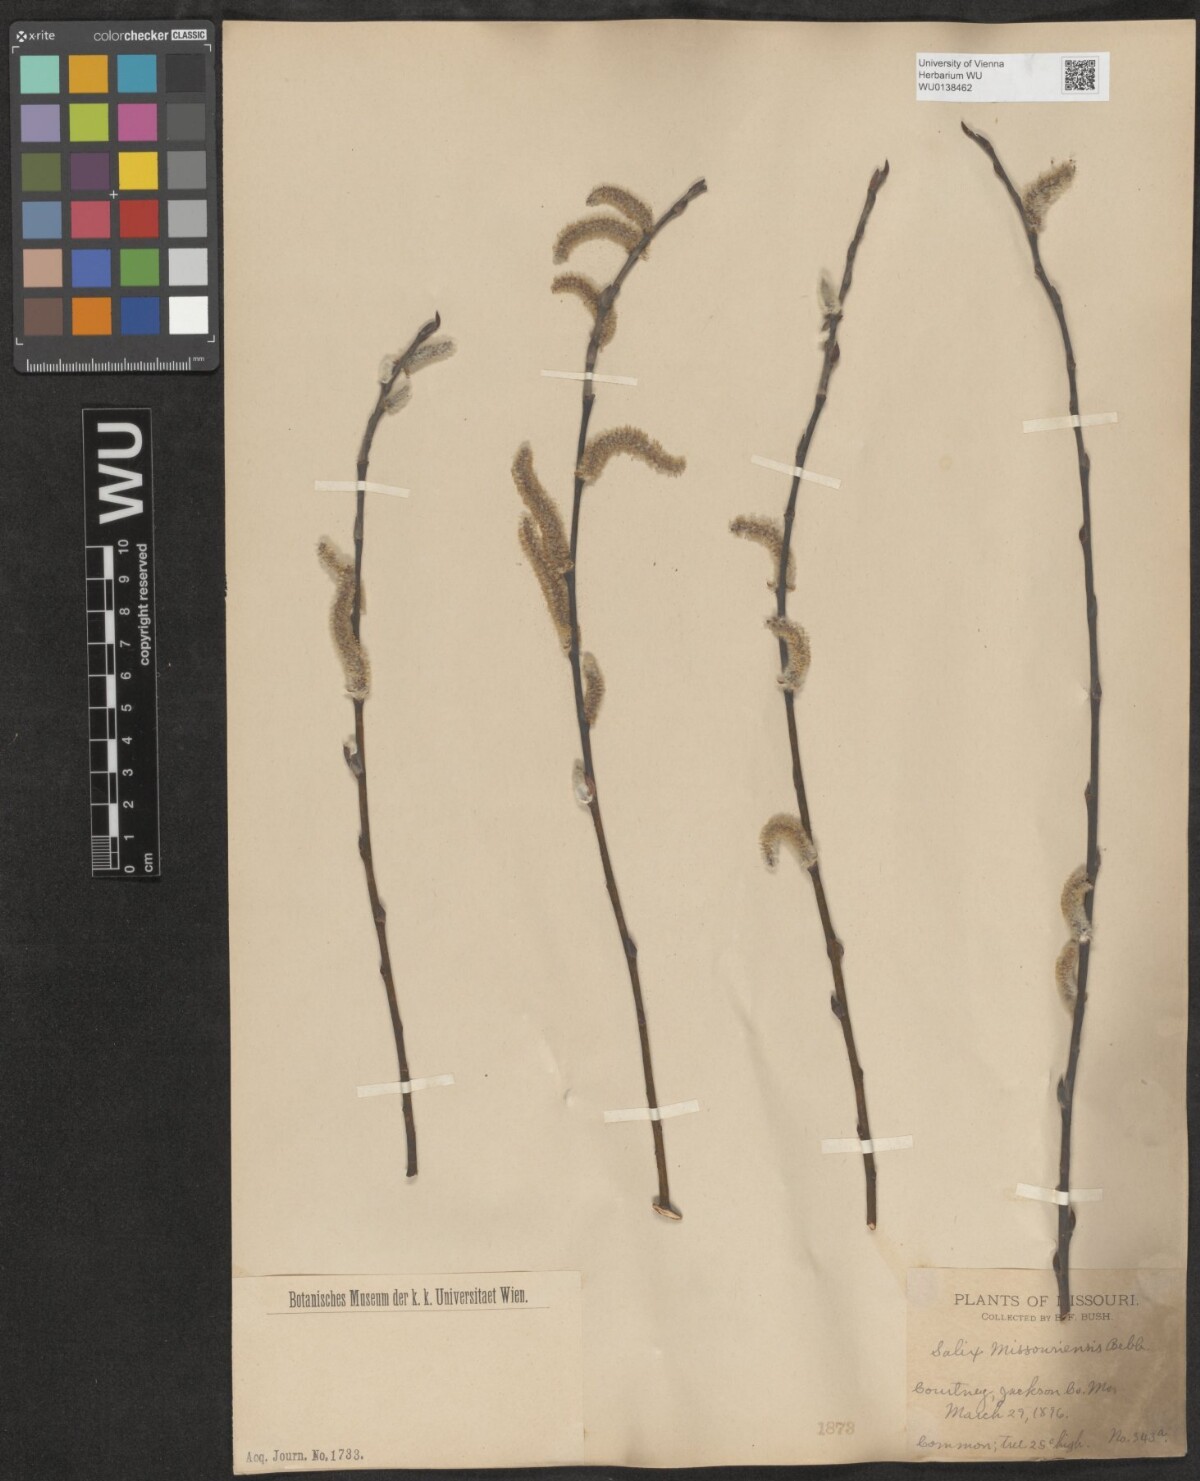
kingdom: Plantae
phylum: Tracheophyta
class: Magnoliopsida
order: Malpighiales
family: Salicaceae
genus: Salix
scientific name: Salix eriocephala
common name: Heart-leaved willow
